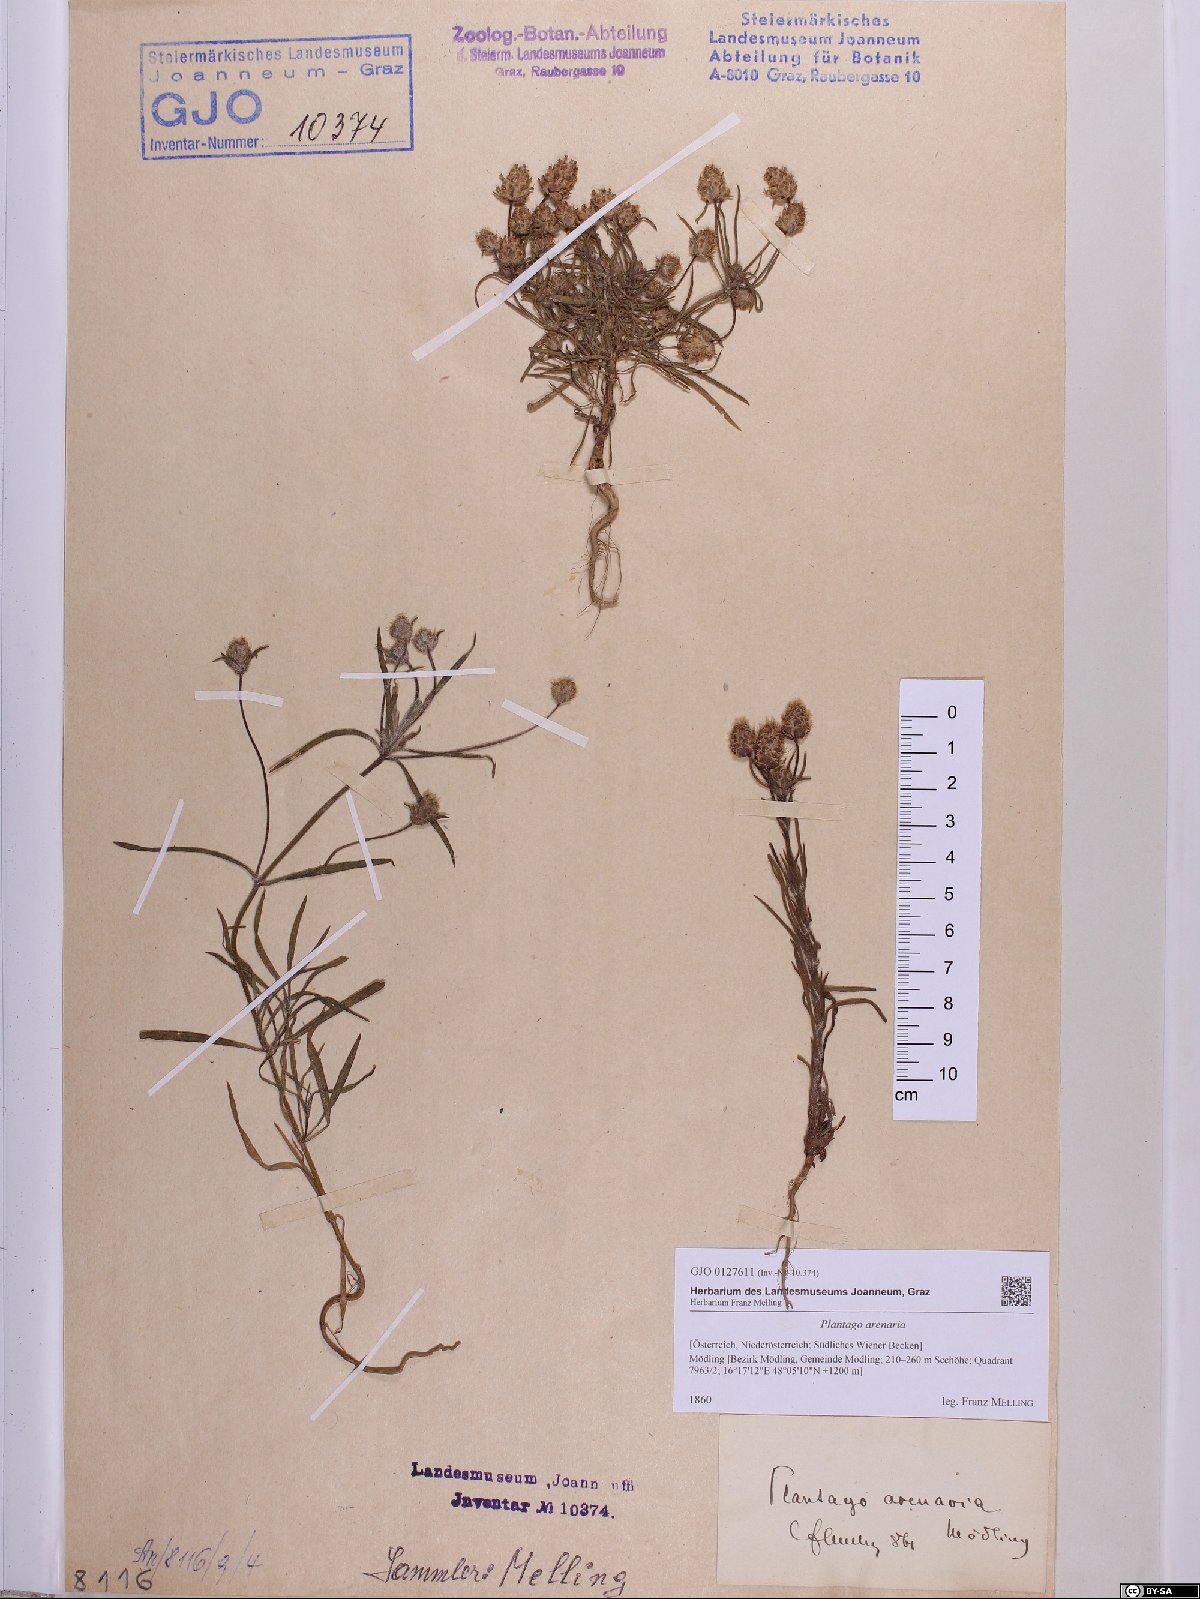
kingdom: Plantae
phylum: Tracheophyta
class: Magnoliopsida
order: Lamiales
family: Plantaginaceae
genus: Plantago
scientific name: Plantago arenaria
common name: Branched plantain
